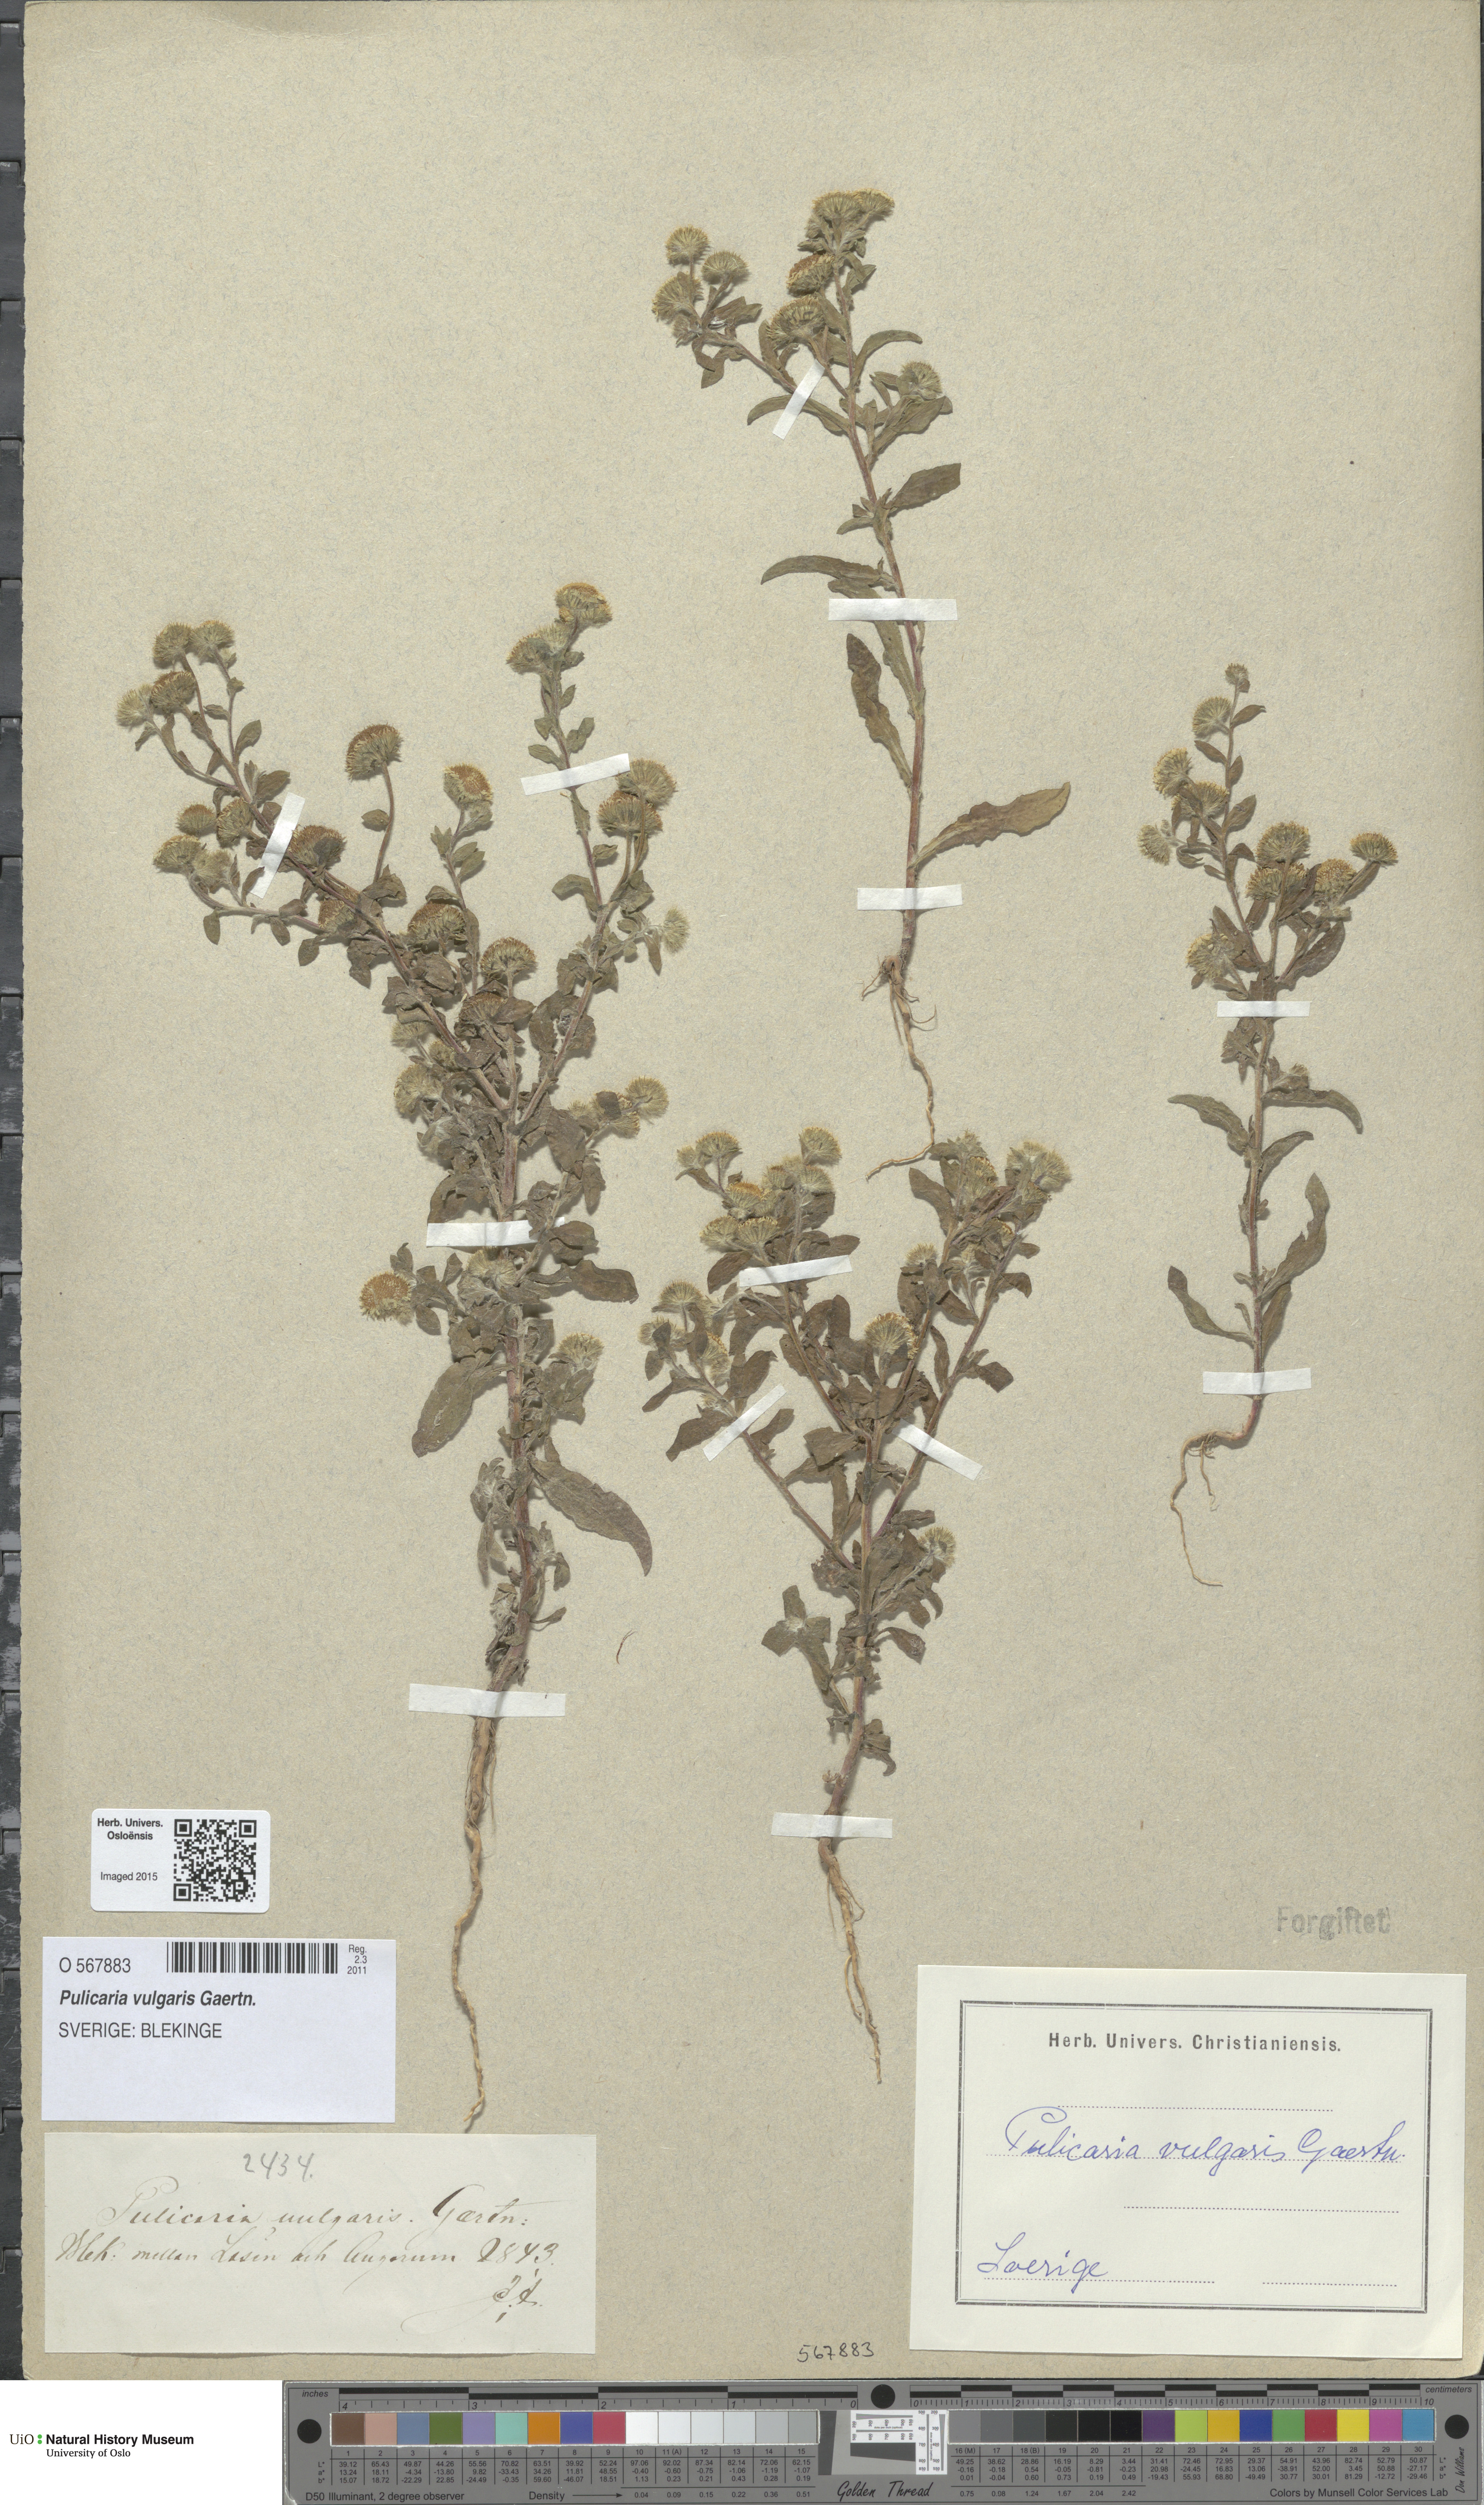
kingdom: Plantae
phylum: Tracheophyta
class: Magnoliopsida
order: Asterales
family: Asteraceae
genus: Pulicaria
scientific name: Pulicaria vulgaris
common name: Small fleabane
